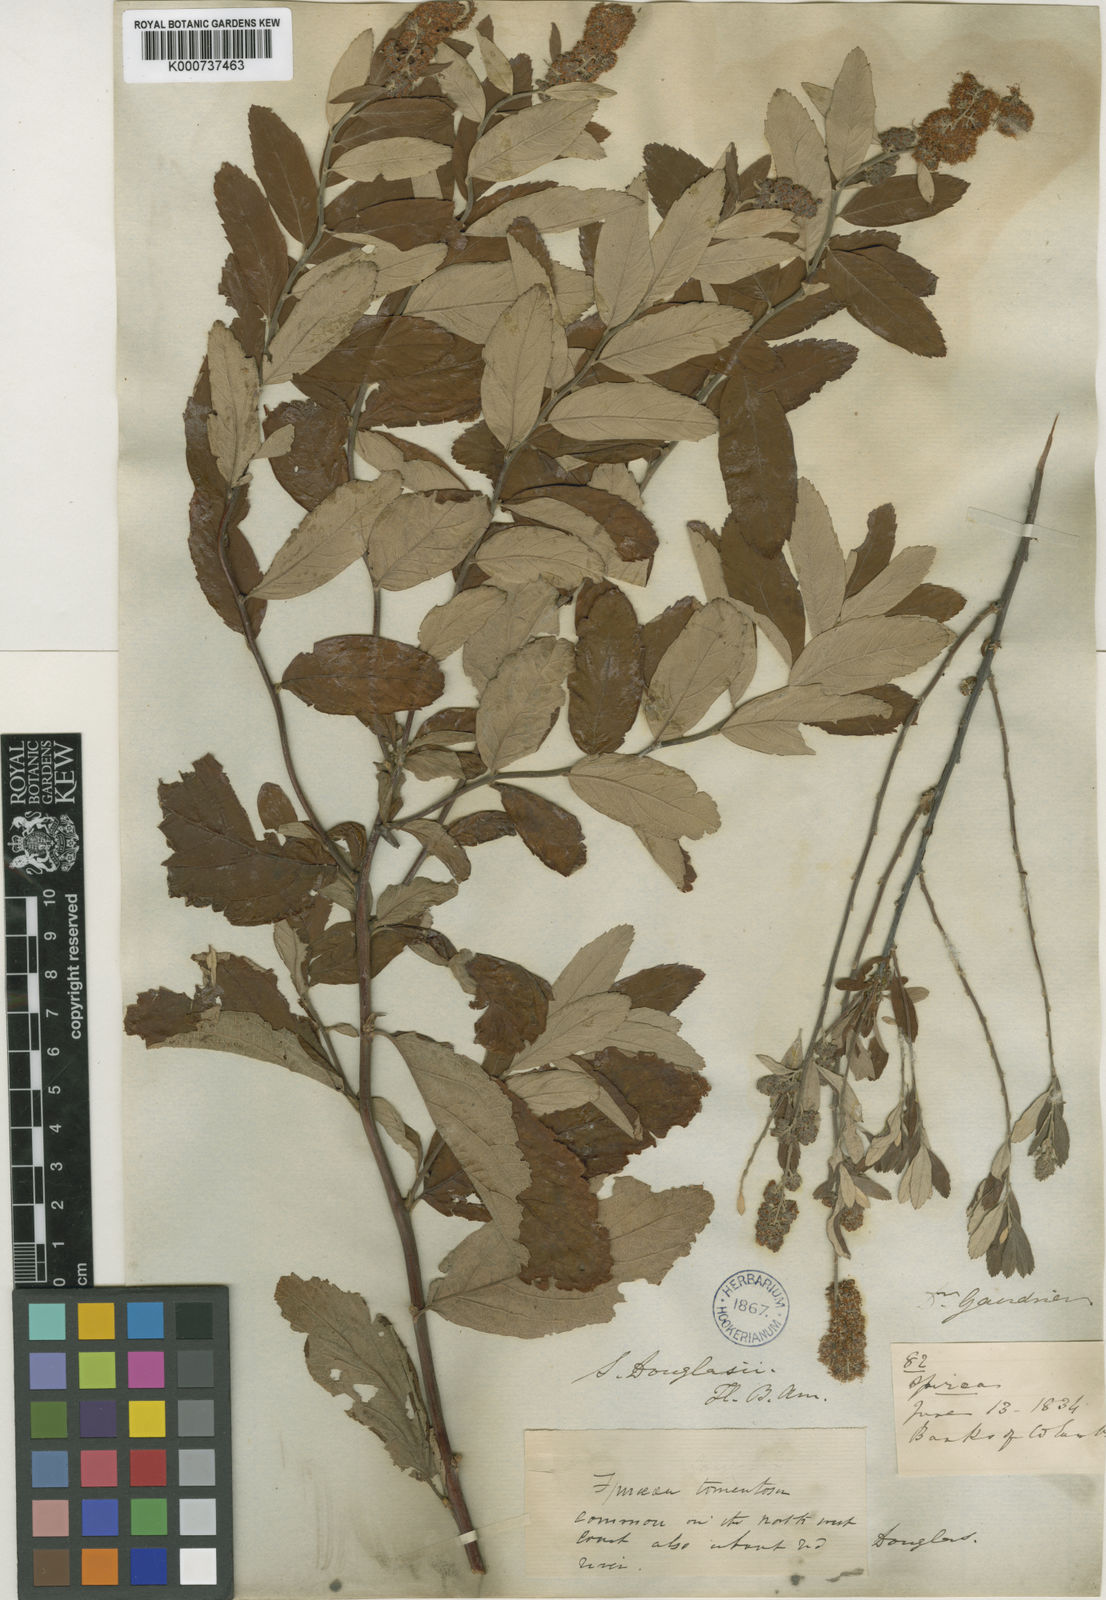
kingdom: Plantae
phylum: Tracheophyta
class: Magnoliopsida
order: Rosales
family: Rosaceae
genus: Spiraea
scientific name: Spiraea douglasii
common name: Steeplebush
